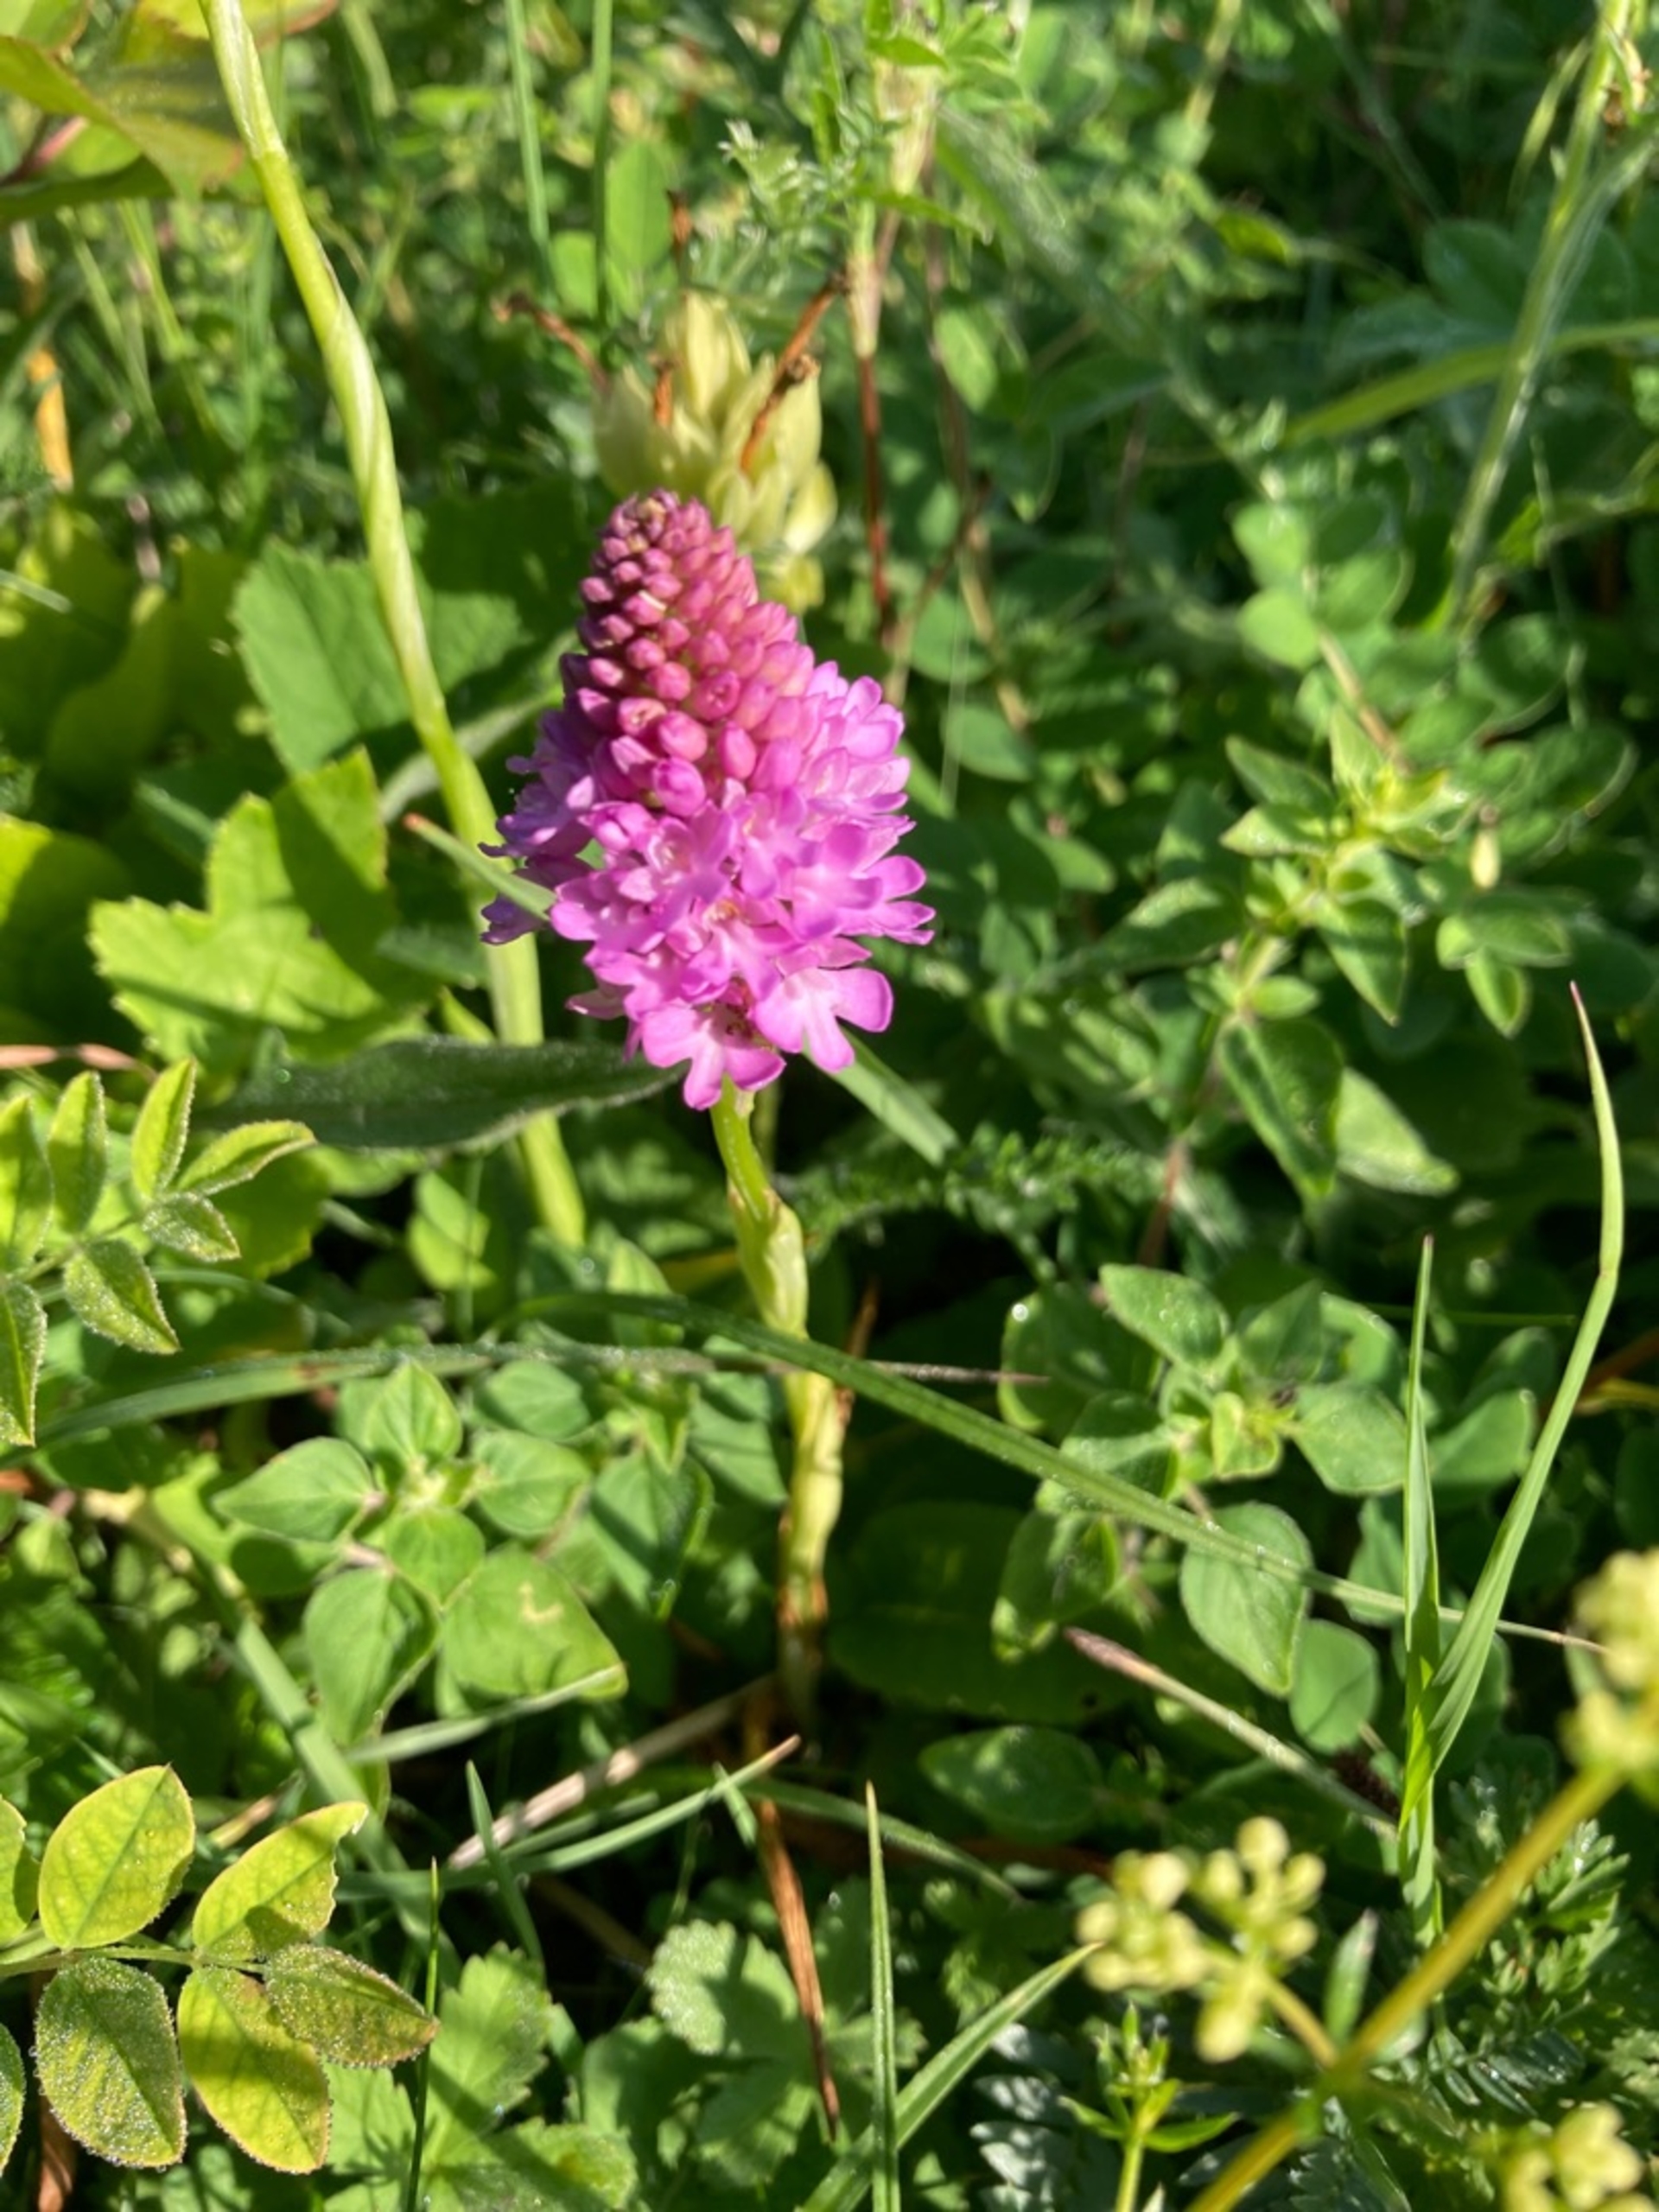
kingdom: Plantae
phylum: Tracheophyta
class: Liliopsida
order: Asparagales
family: Orchidaceae
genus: Anacamptis
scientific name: Anacamptis pyramidalis
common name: Horndrager
